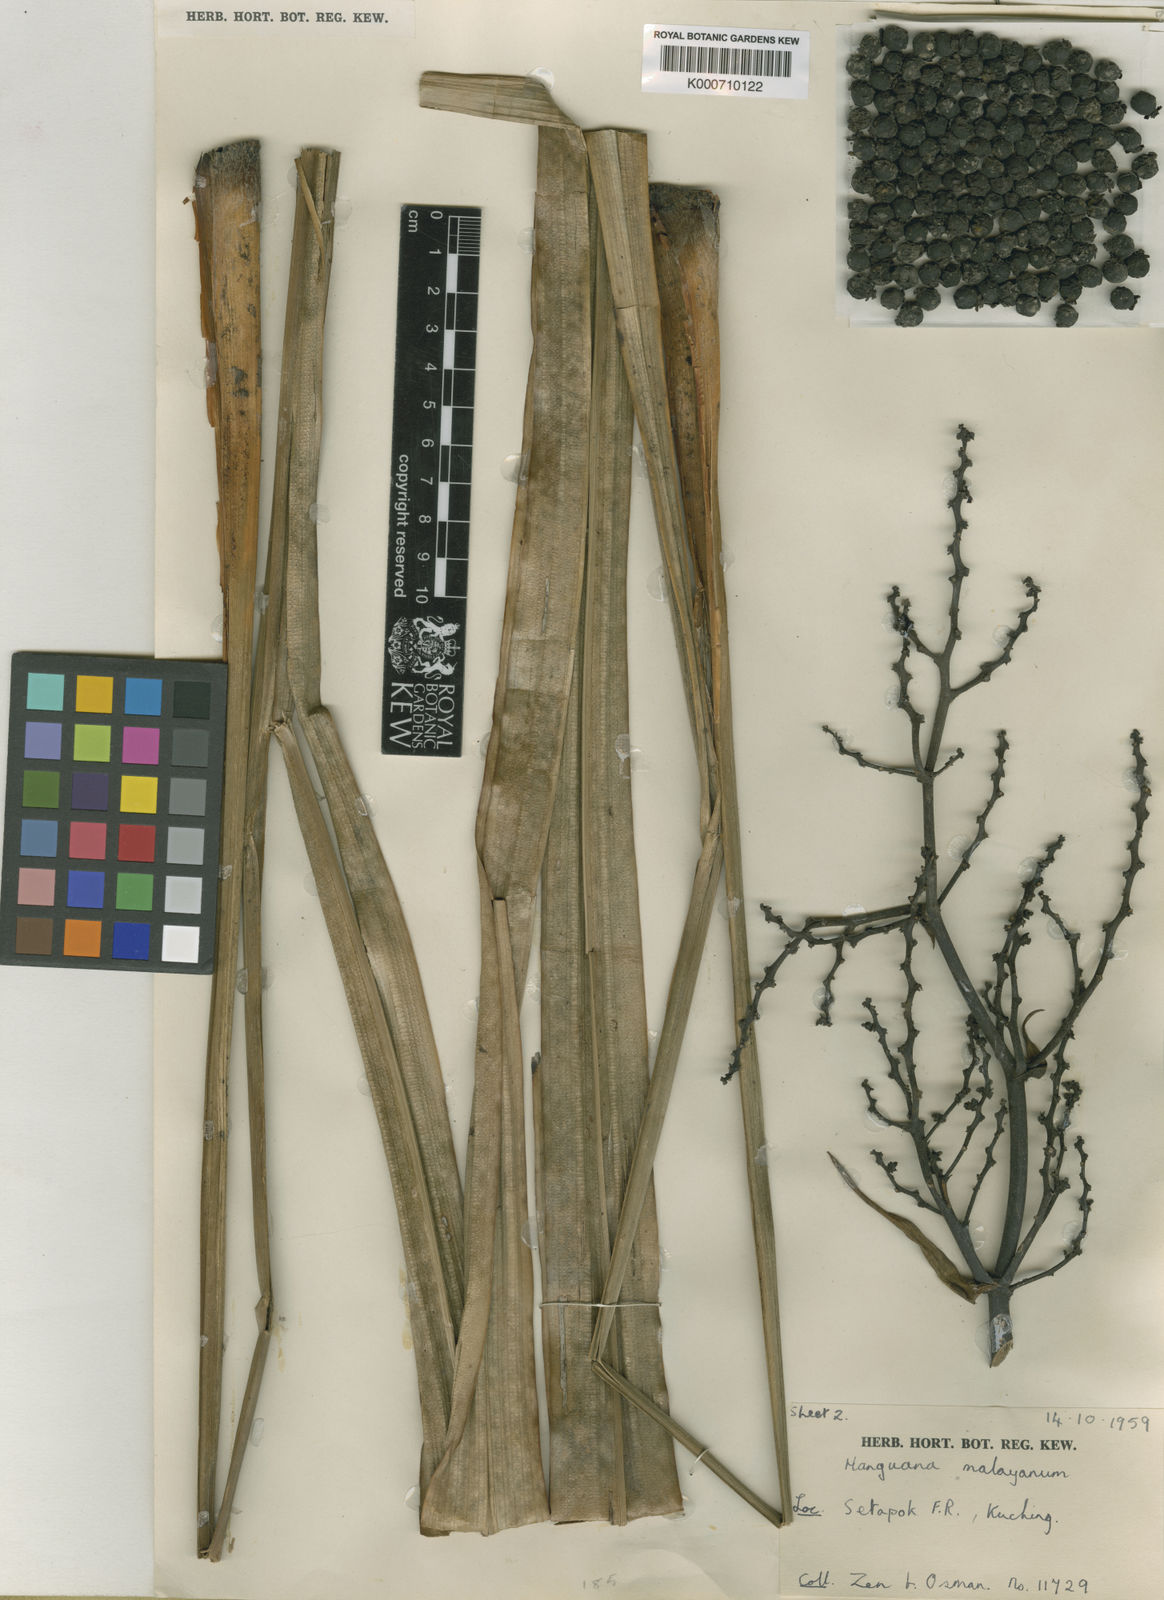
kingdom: Plantae
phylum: Tracheophyta
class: Liliopsida
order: Commelinales
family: Hanguanaceae
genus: Hanguana
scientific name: Hanguana malayana
